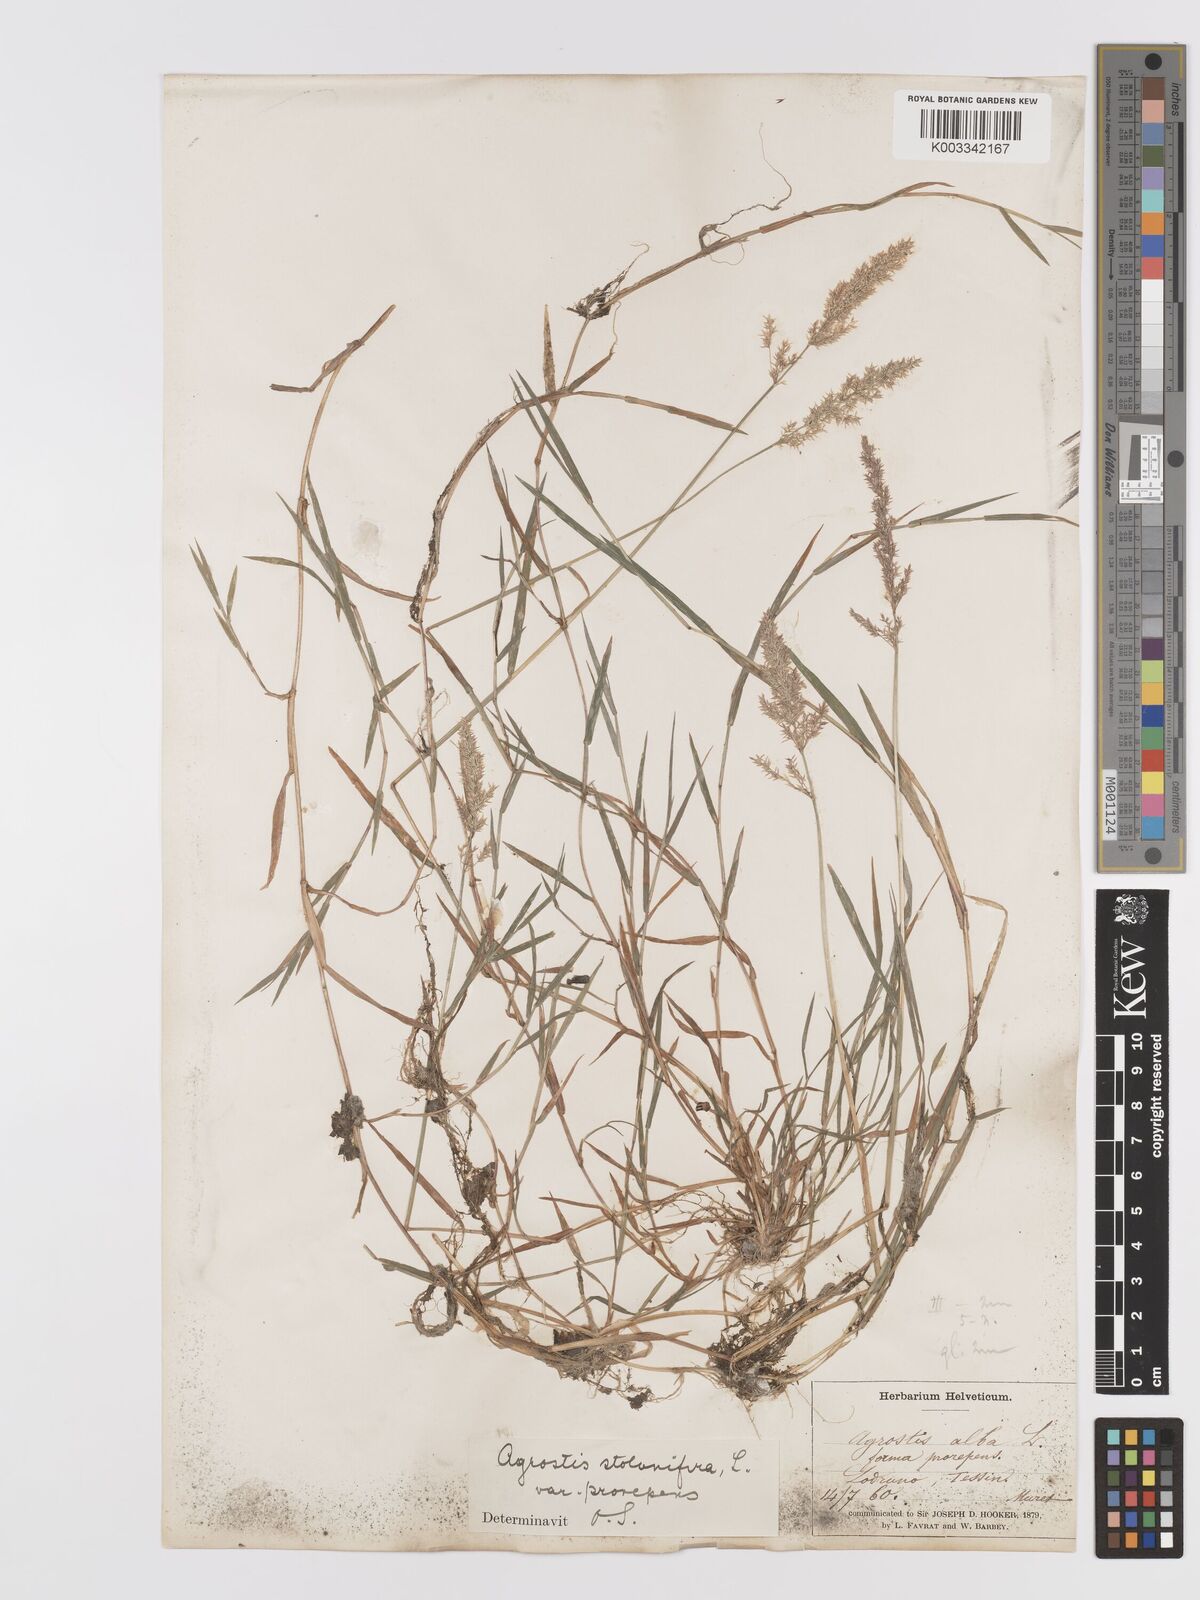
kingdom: Plantae
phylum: Tracheophyta
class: Liliopsida
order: Poales
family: Poaceae
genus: Agrostis
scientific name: Agrostis stolonifera
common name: Creeping bentgrass
